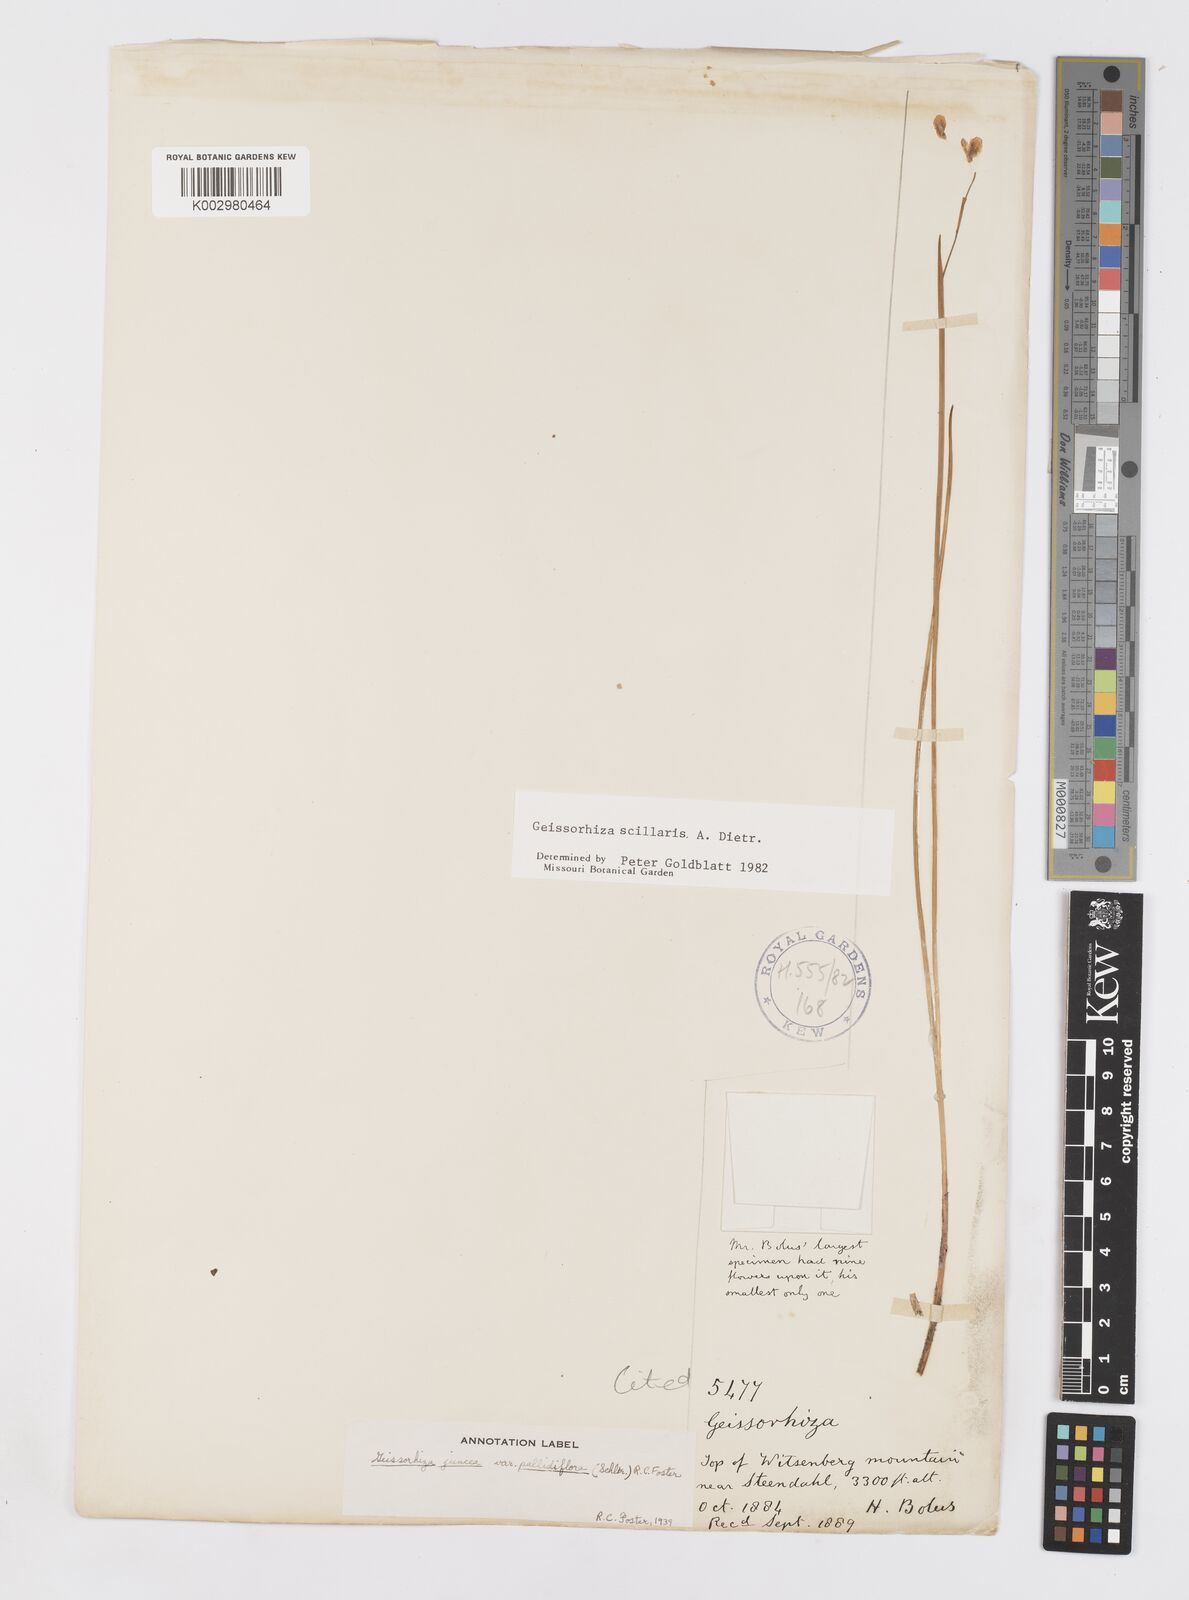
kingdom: Plantae
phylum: Tracheophyta
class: Liliopsida
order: Asparagales
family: Iridaceae
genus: Geissorhiza
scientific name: Geissorhiza scillaris
